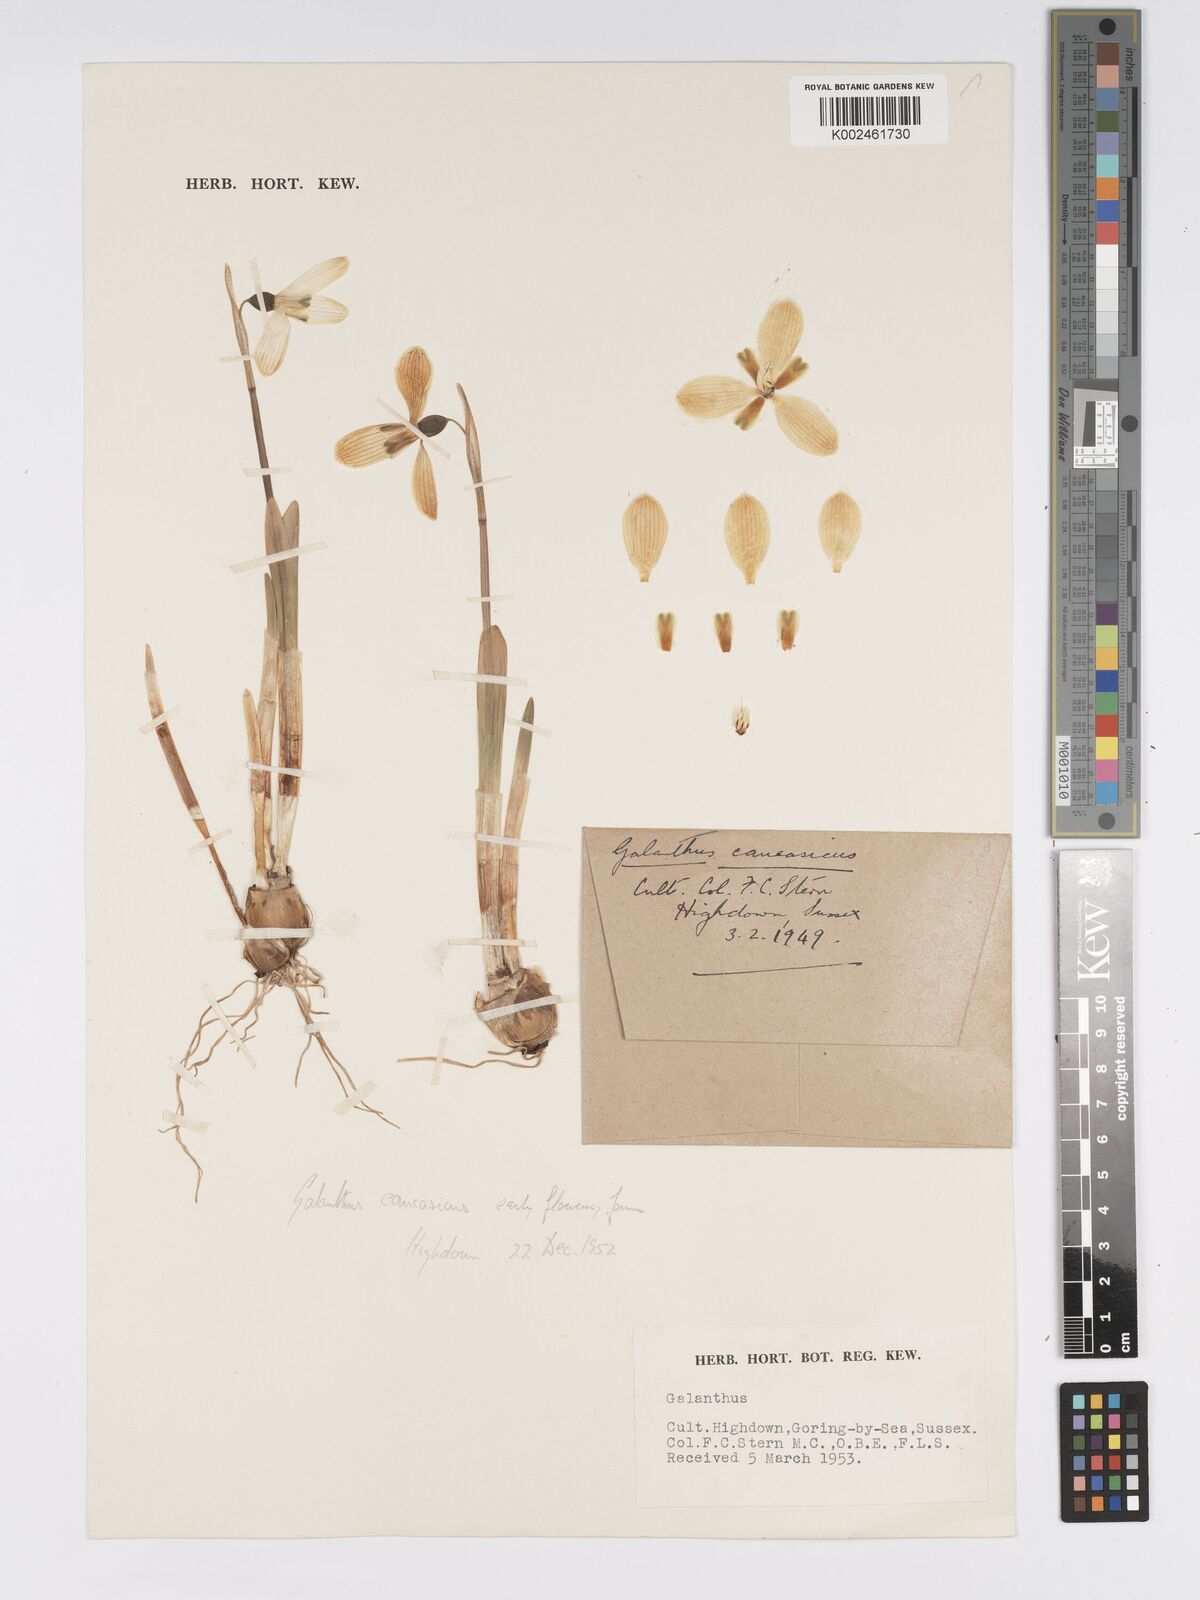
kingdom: Plantae
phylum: Tracheophyta
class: Liliopsida
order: Asparagales
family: Amaryllidaceae
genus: Galanthus
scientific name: Galanthus alpinus
